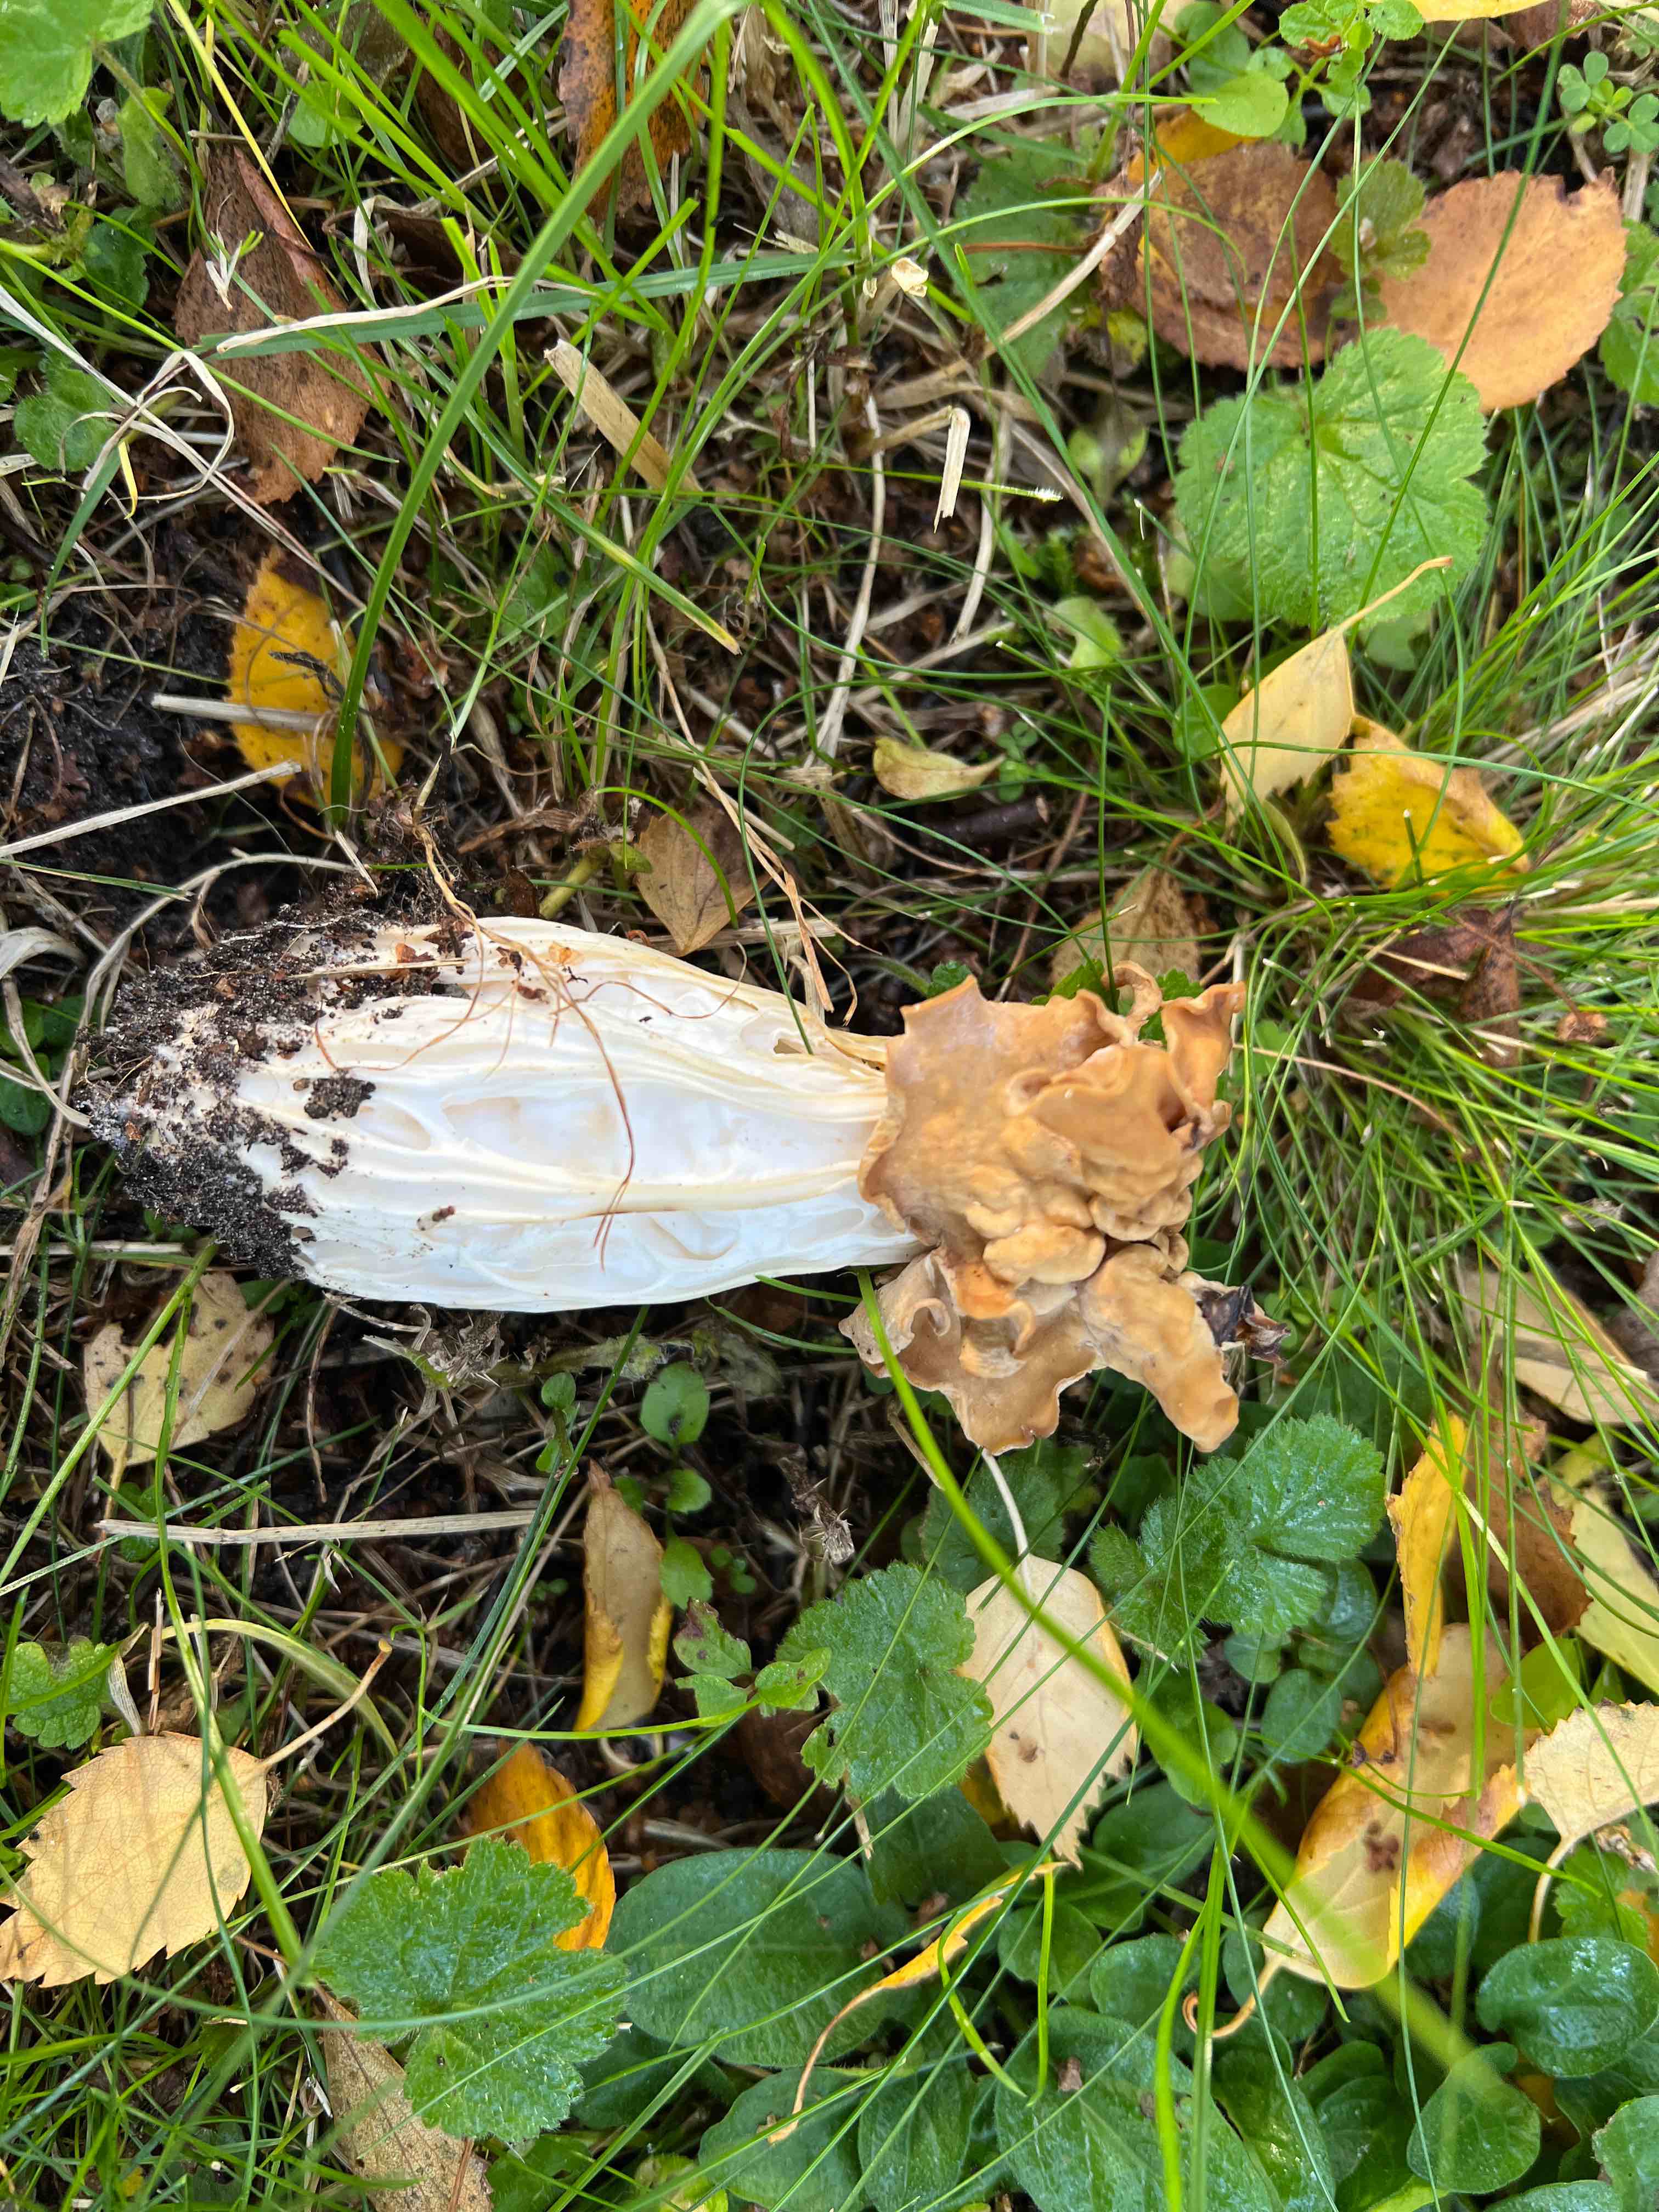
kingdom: Fungi
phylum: Ascomycota
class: Pezizomycetes
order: Pezizales
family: Helvellaceae
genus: Helvella
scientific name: Helvella crispa
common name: kruset foldhat
